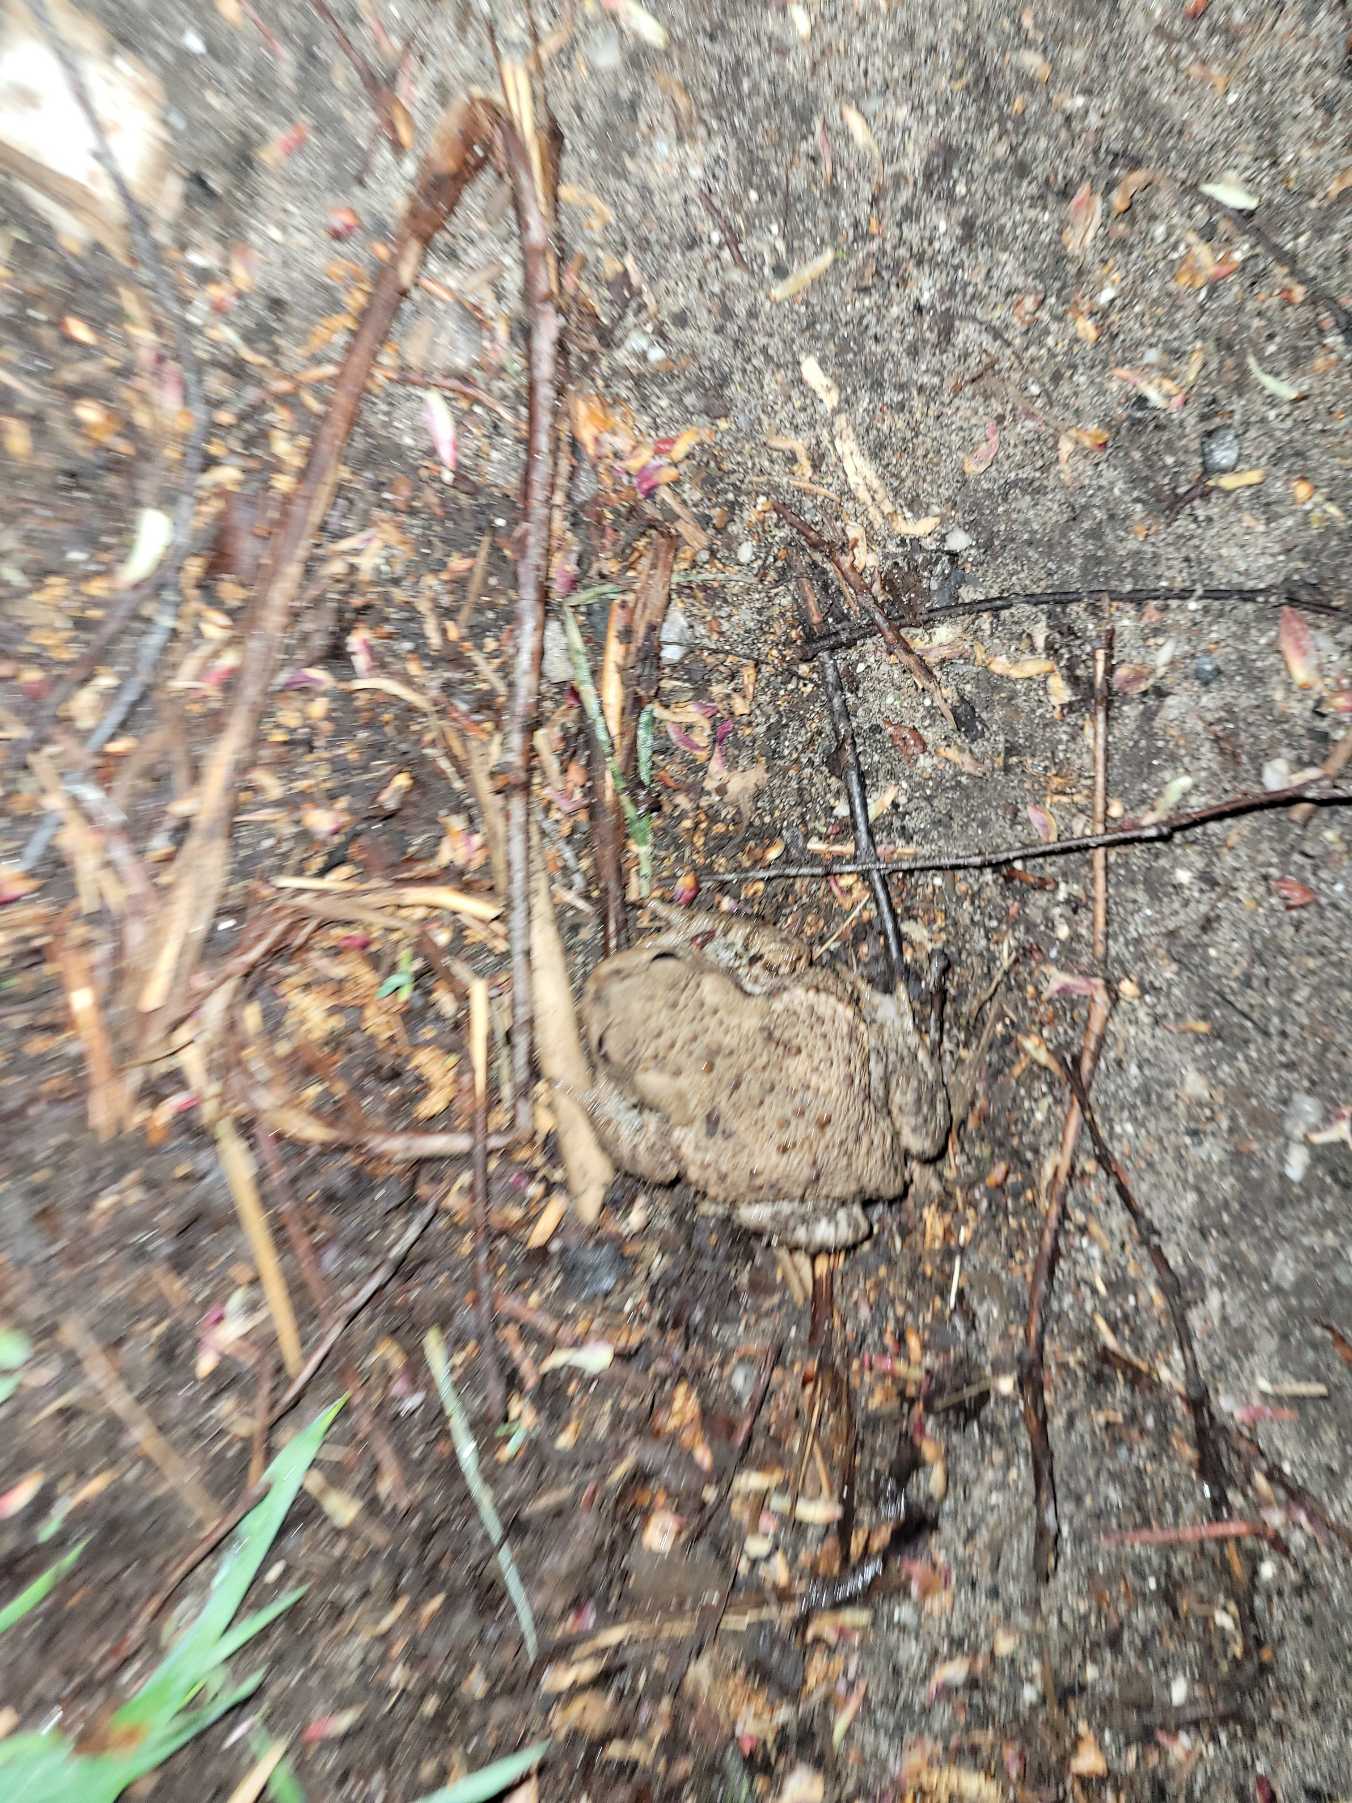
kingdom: Animalia
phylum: Chordata
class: Amphibia
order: Anura
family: Bufonidae
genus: Bufo
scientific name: Bufo bufo
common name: Skrubtudse
